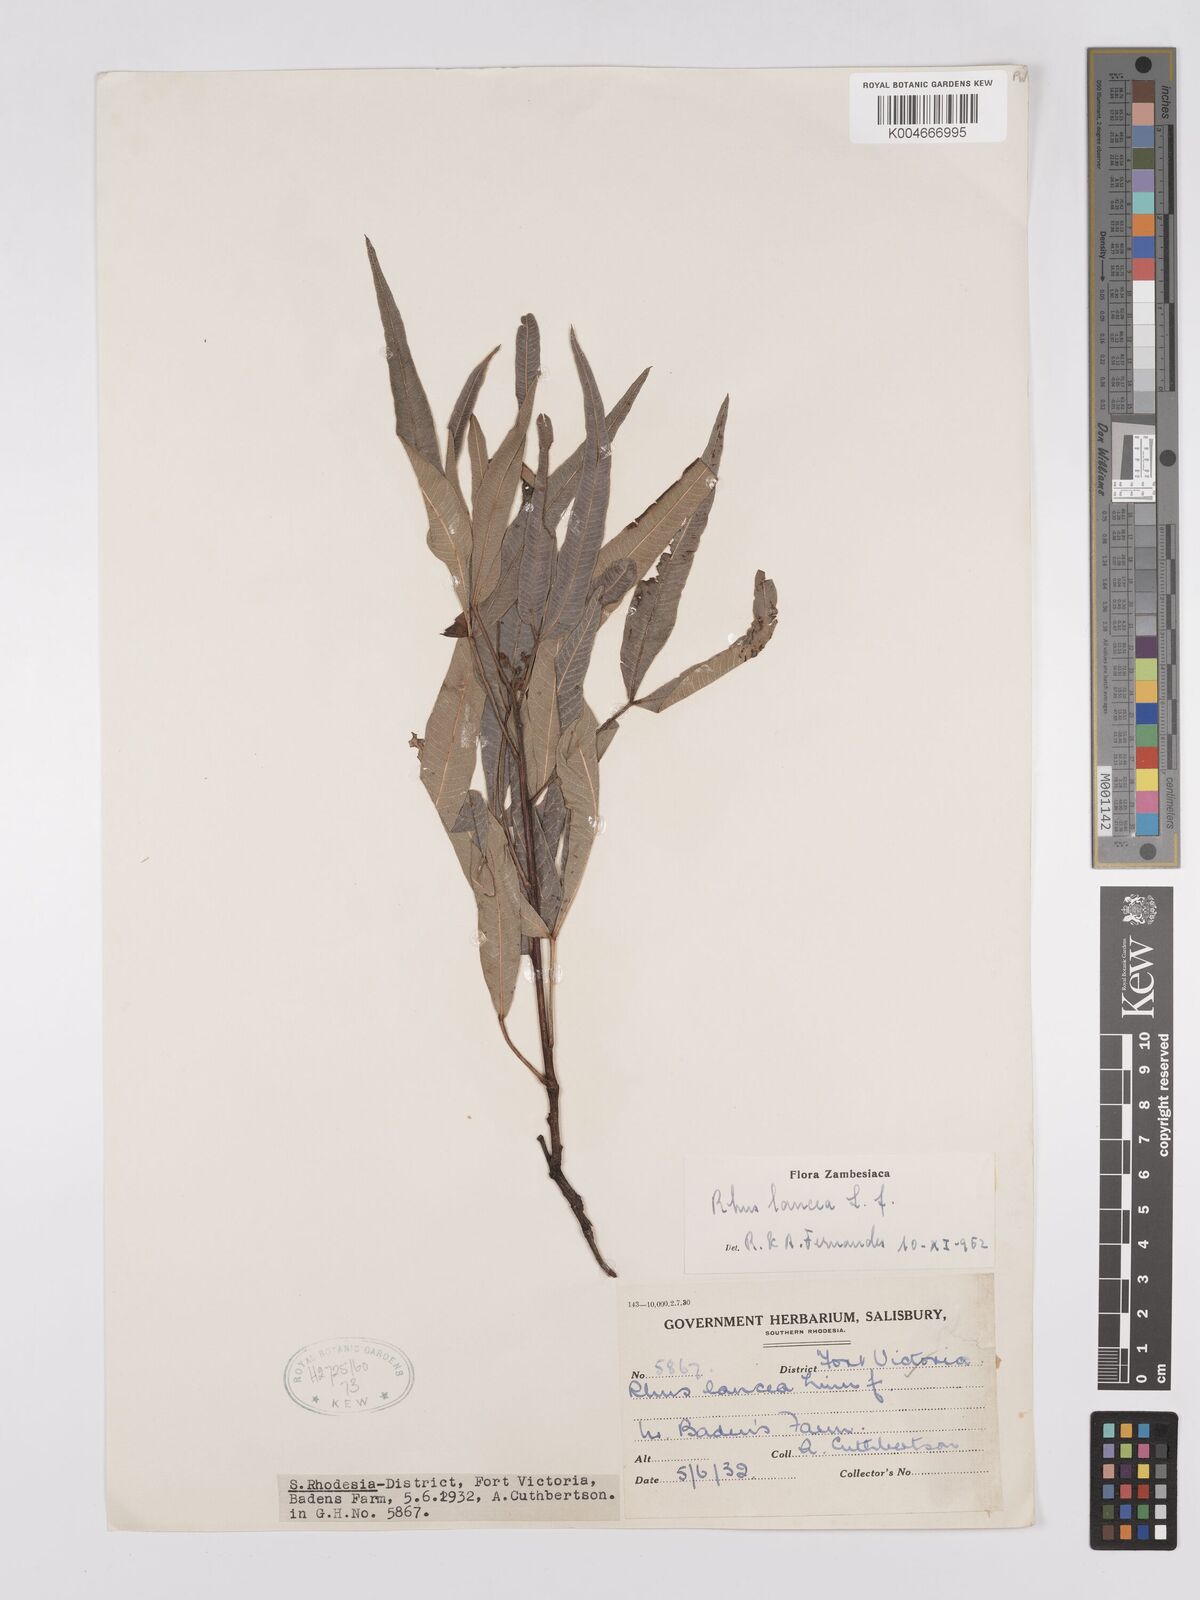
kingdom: Plantae
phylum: Tracheophyta
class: Magnoliopsida
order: Sapindales
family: Anacardiaceae
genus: Searsia
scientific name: Searsia lancea
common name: Cashew
